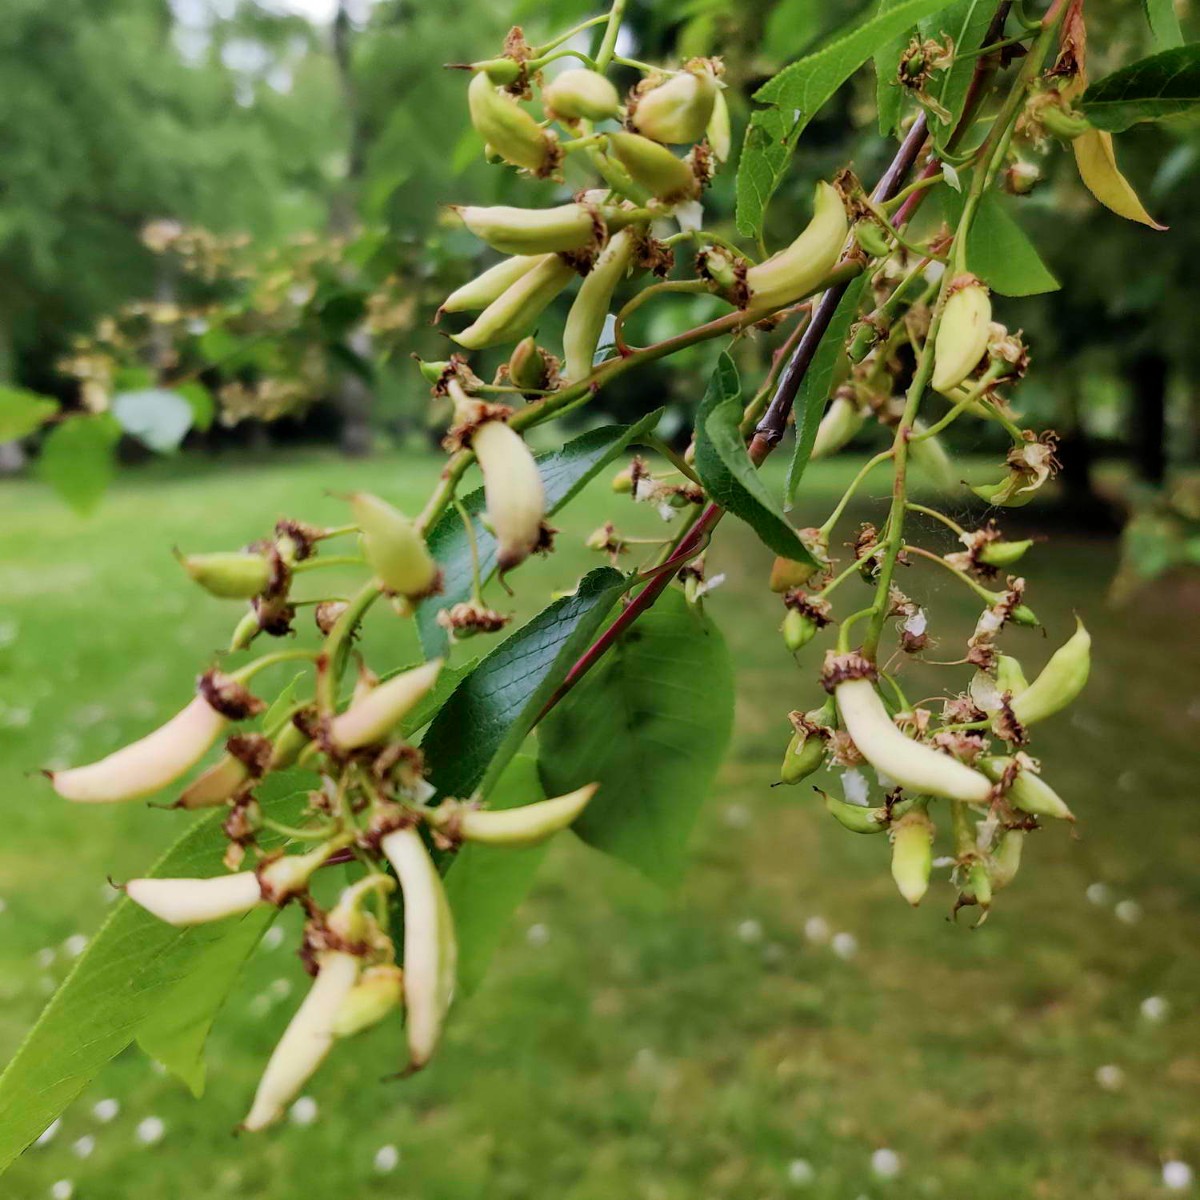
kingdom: Fungi
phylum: Ascomycota
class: Taphrinomycetes
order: Taphrinales
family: Taphrinaceae
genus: Taphrina
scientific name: Taphrina padi
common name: Bird cherry pocket
